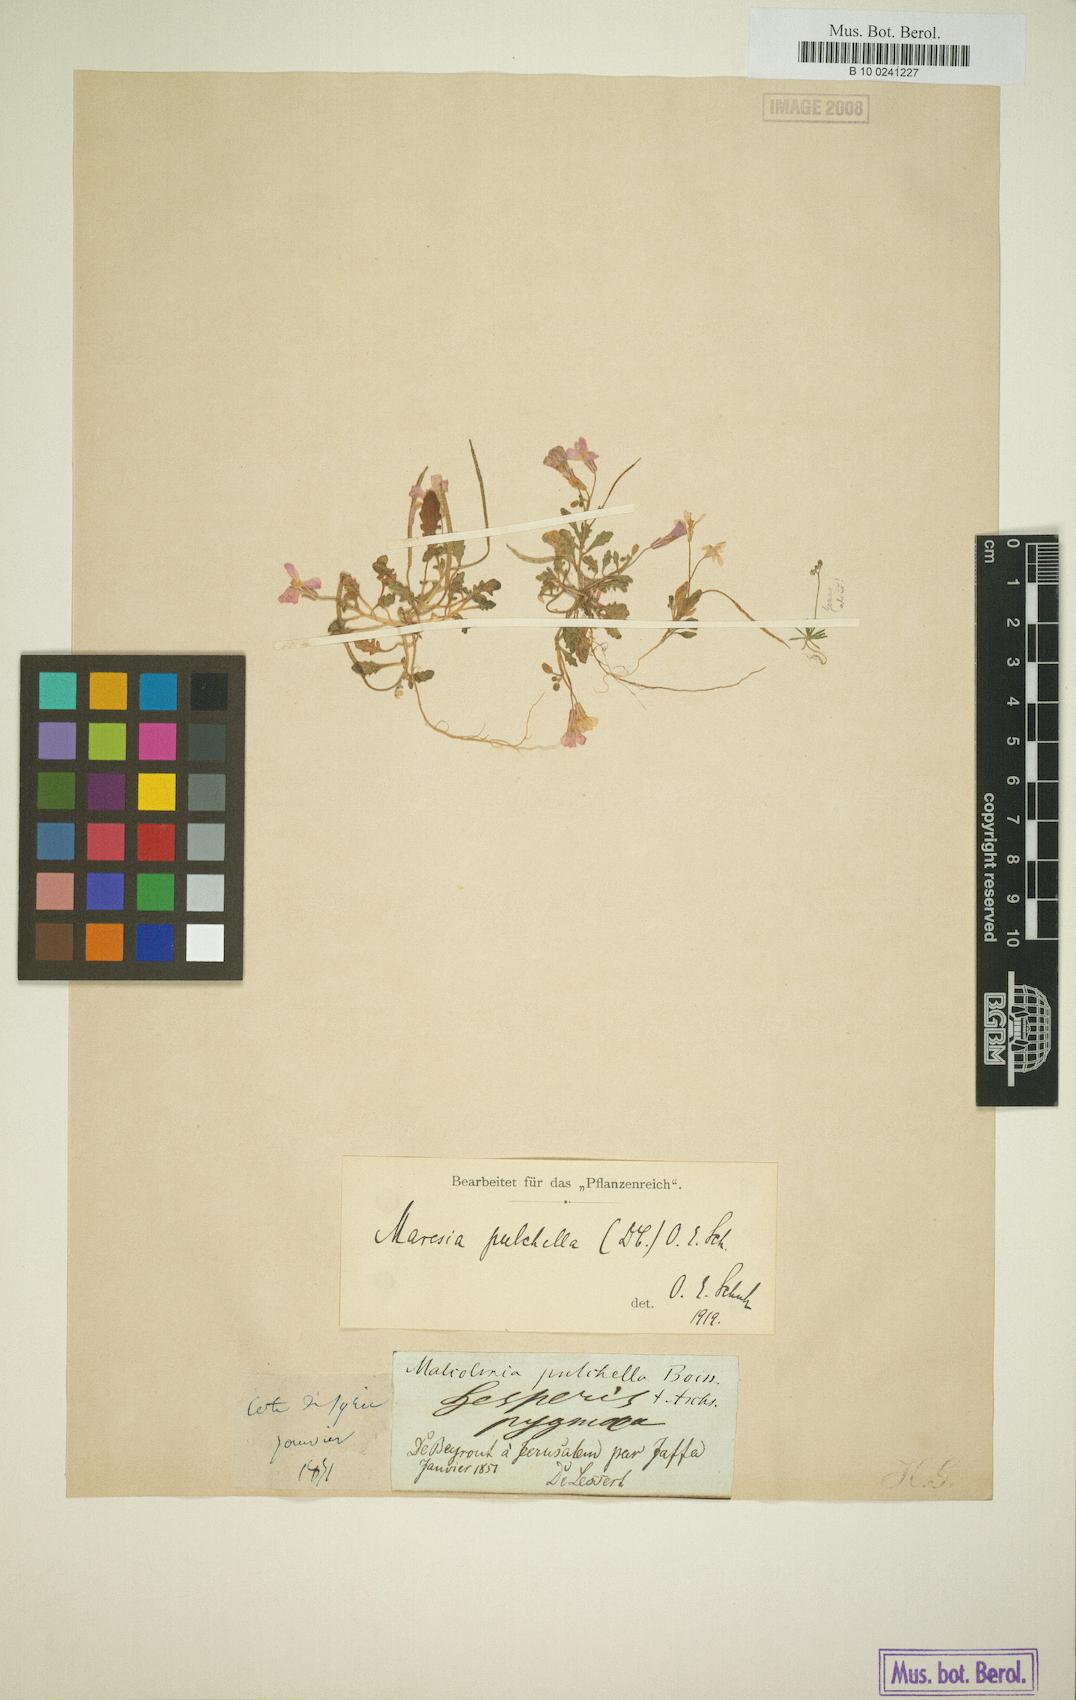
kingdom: Plantae
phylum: Tracheophyta
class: Magnoliopsida
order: Brassicales
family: Brassicaceae
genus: Maresia
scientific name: Maresia pulchella
